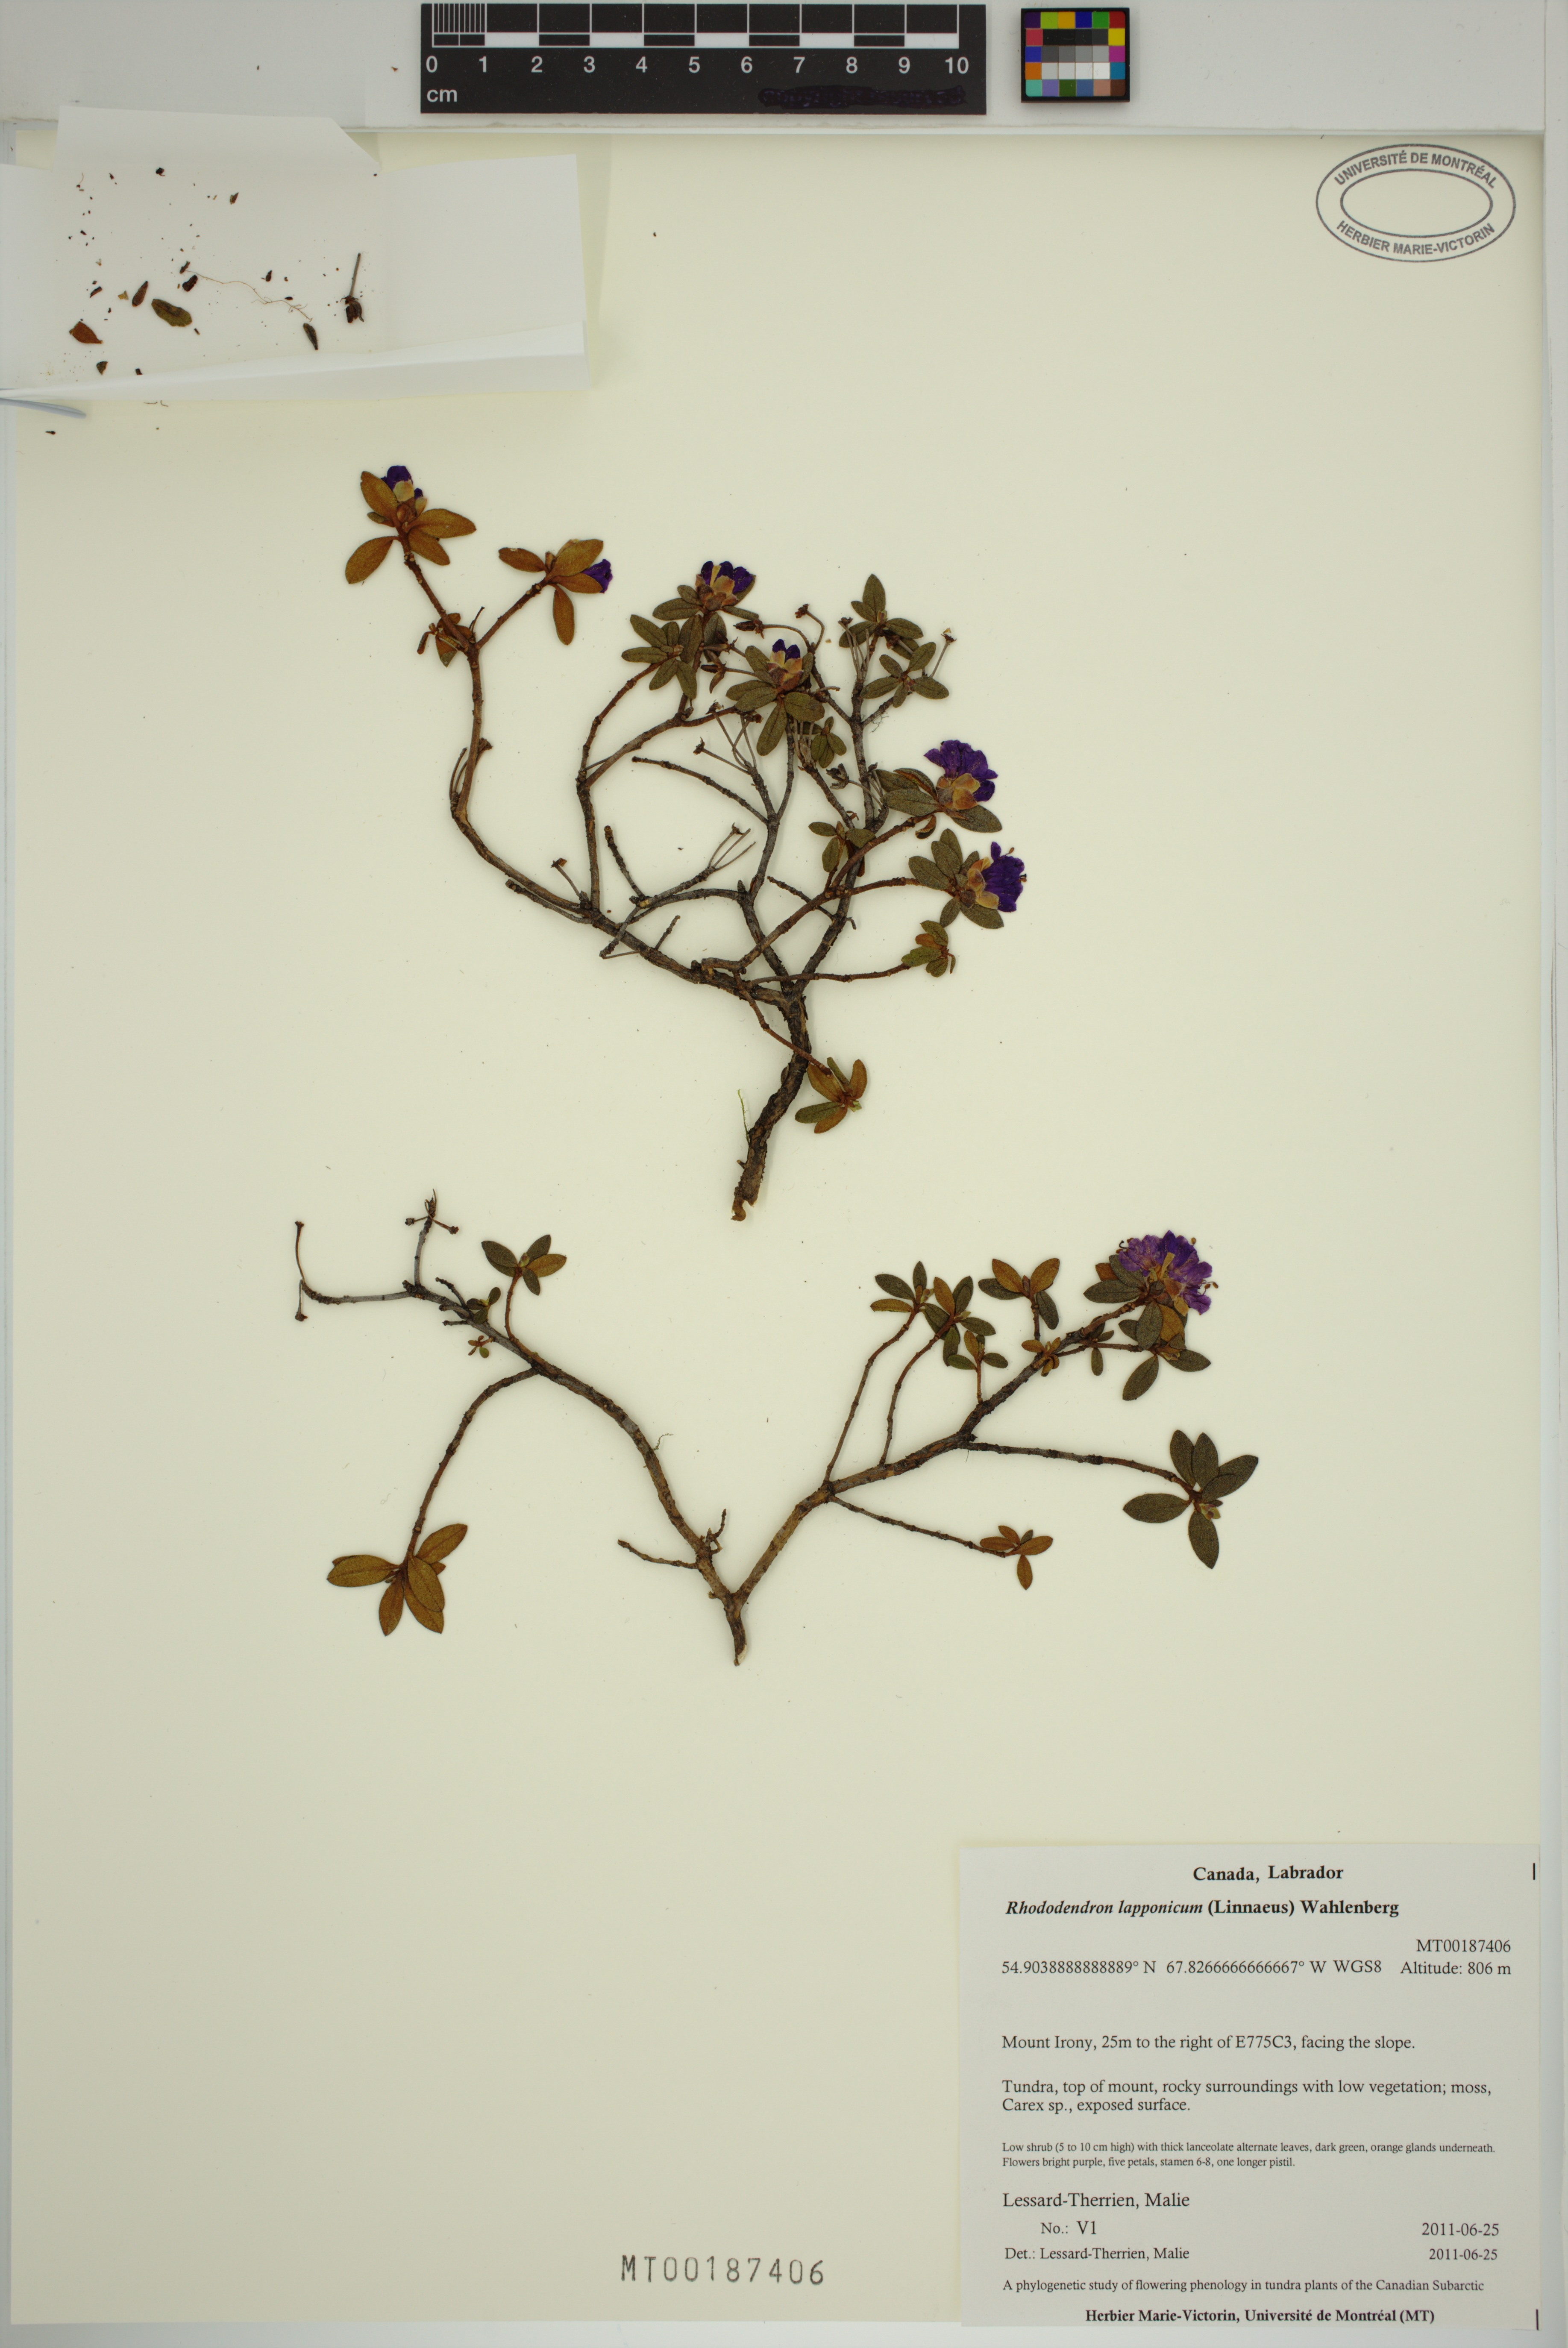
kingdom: Plantae
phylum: Tracheophyta
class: Magnoliopsida
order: Ericales
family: Ericaceae
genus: Rhododendron
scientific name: Rhododendron lapponicum
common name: Lapland rhododendron
